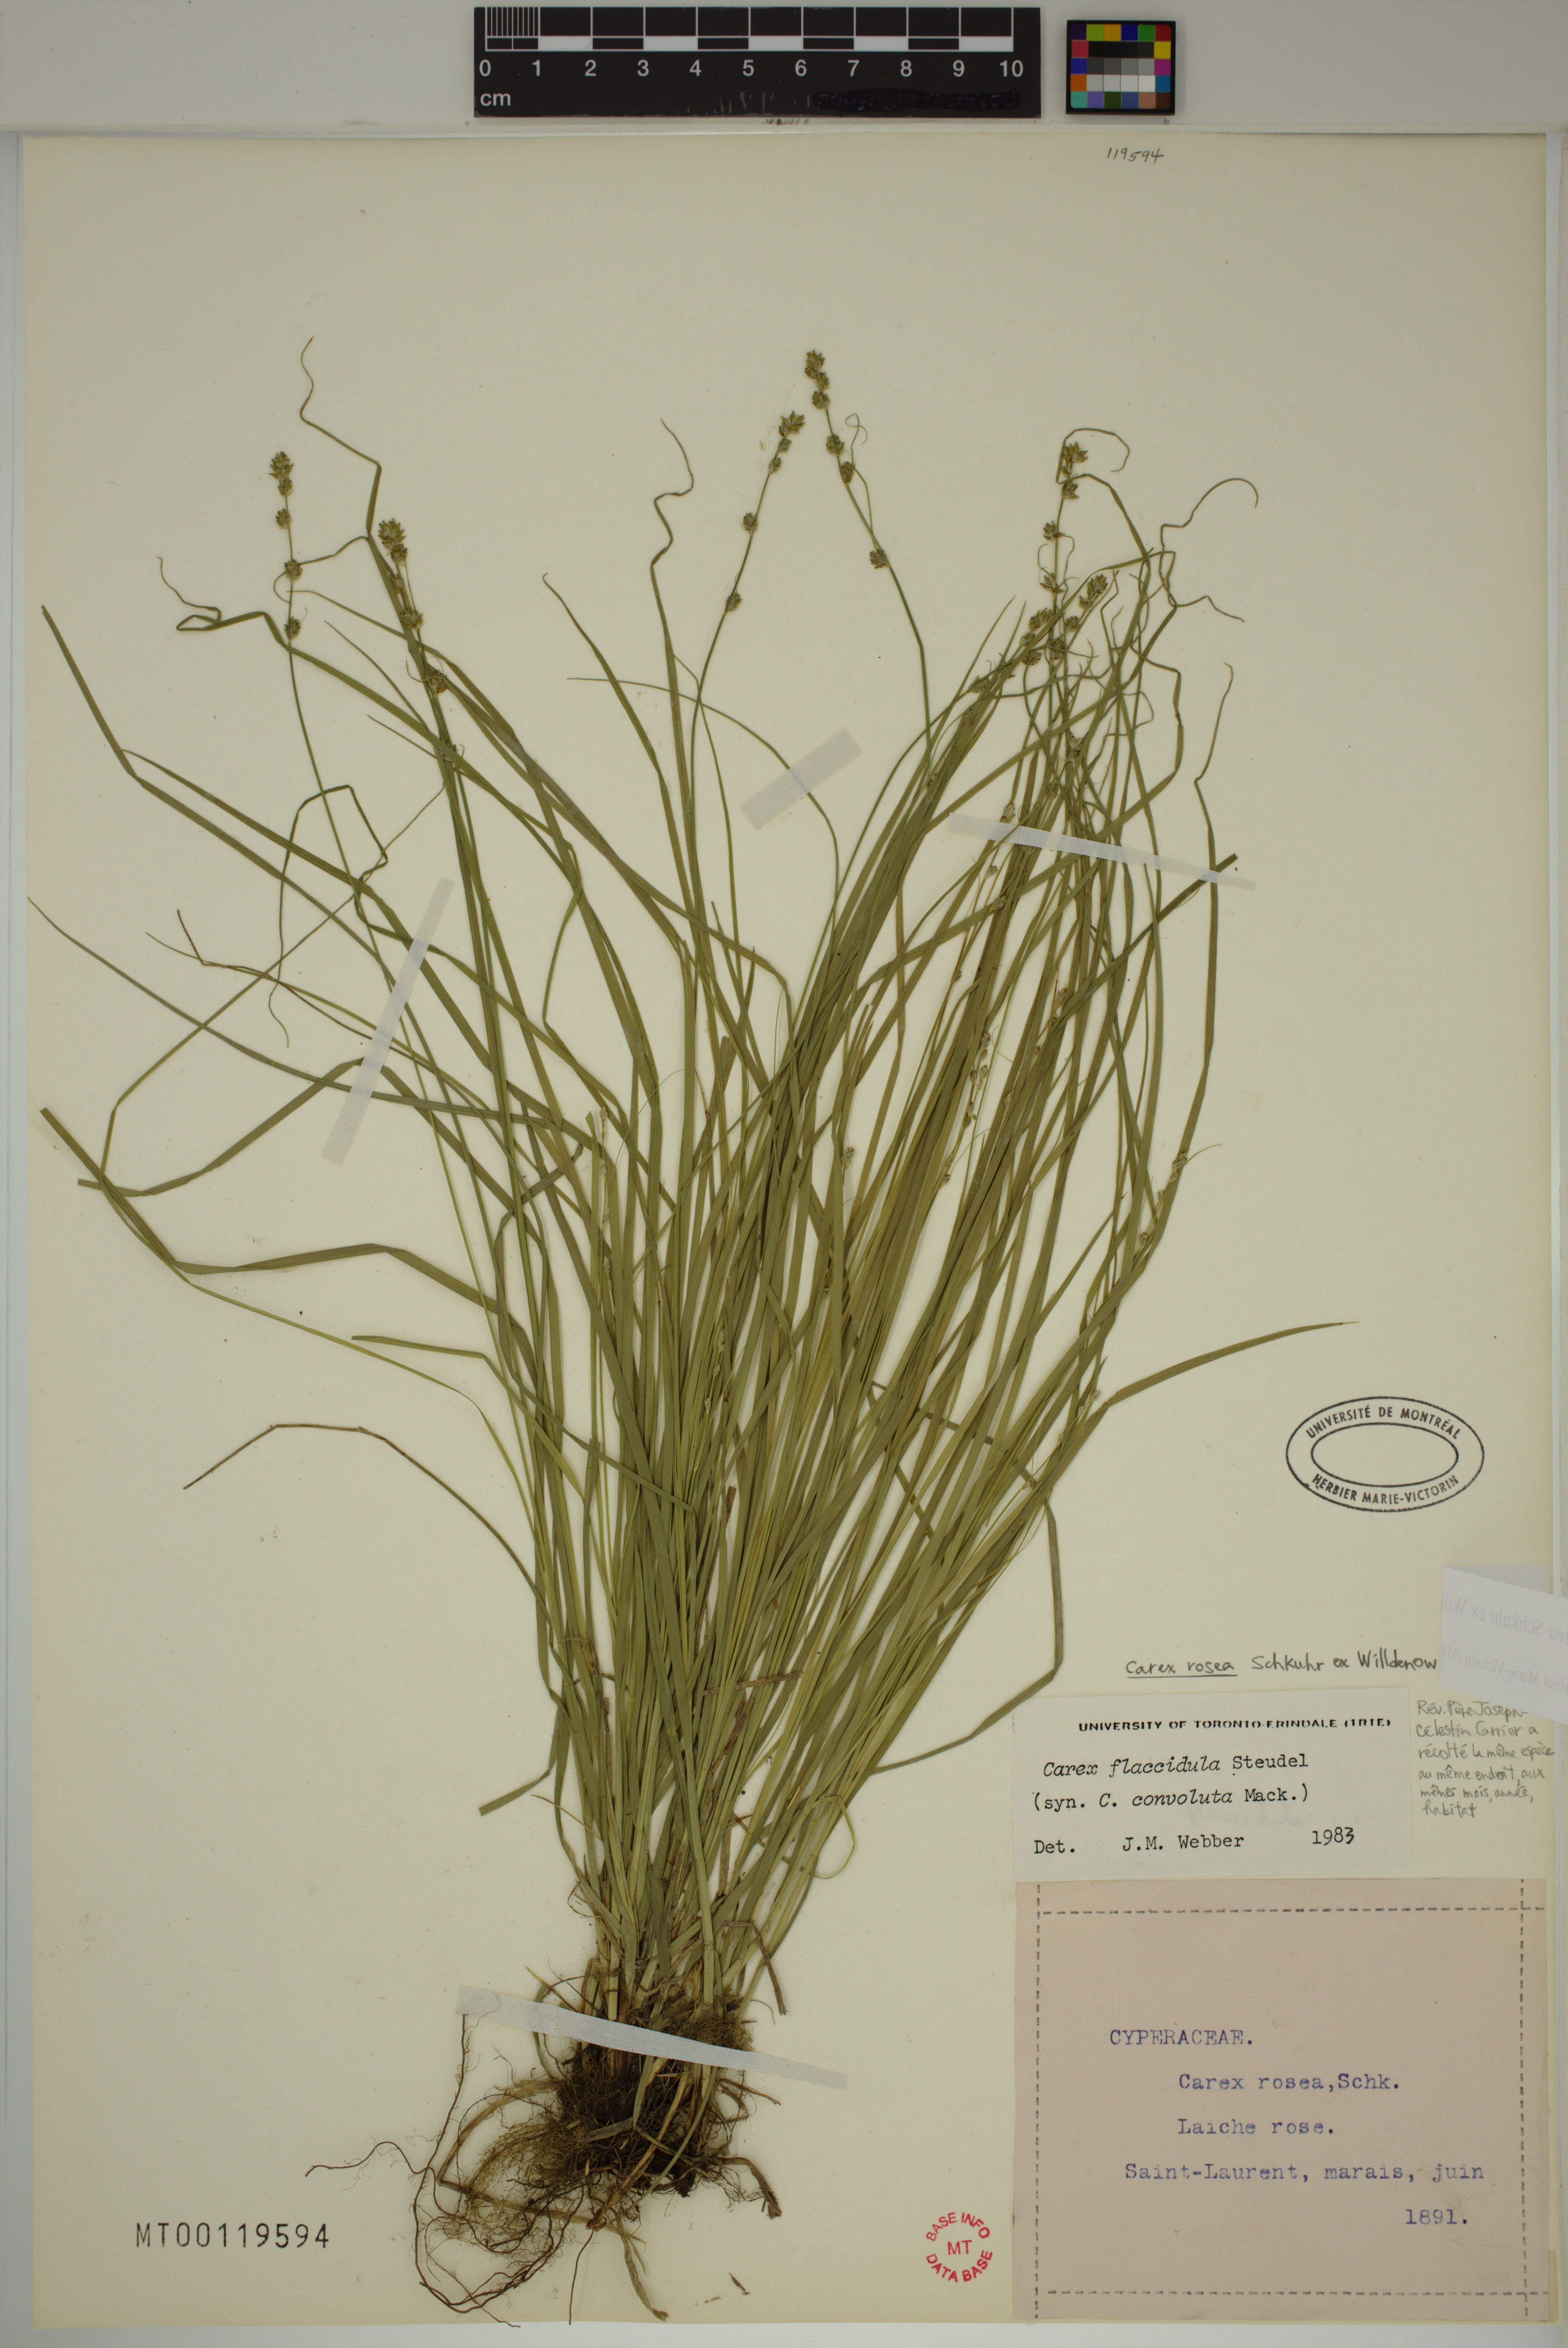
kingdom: Plantae
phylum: Tracheophyta
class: Liliopsida
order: Poales
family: Cyperaceae
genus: Carex
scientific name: Carex rosea
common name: Curly-styled wood sedge
